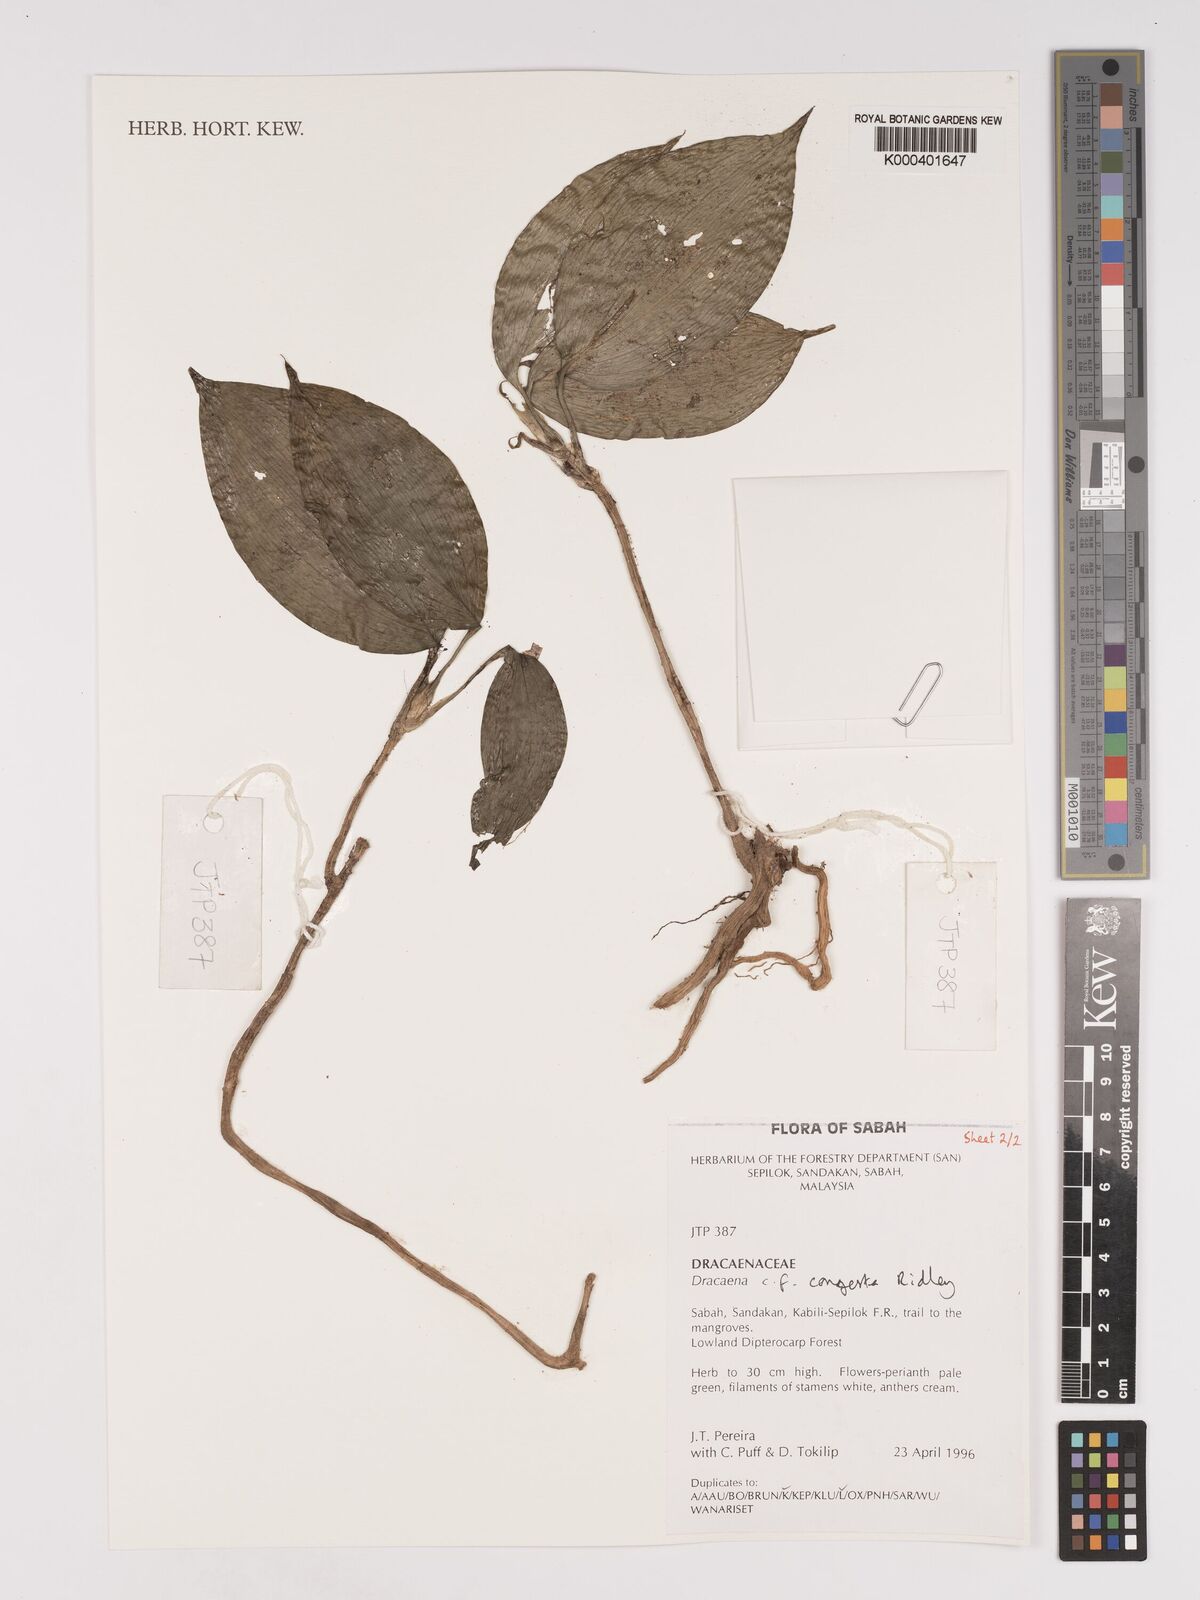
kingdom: Plantae
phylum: Tracheophyta
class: Liliopsida
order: Asparagales
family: Asparagaceae
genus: Dracaena
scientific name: Dracaena chiniana
